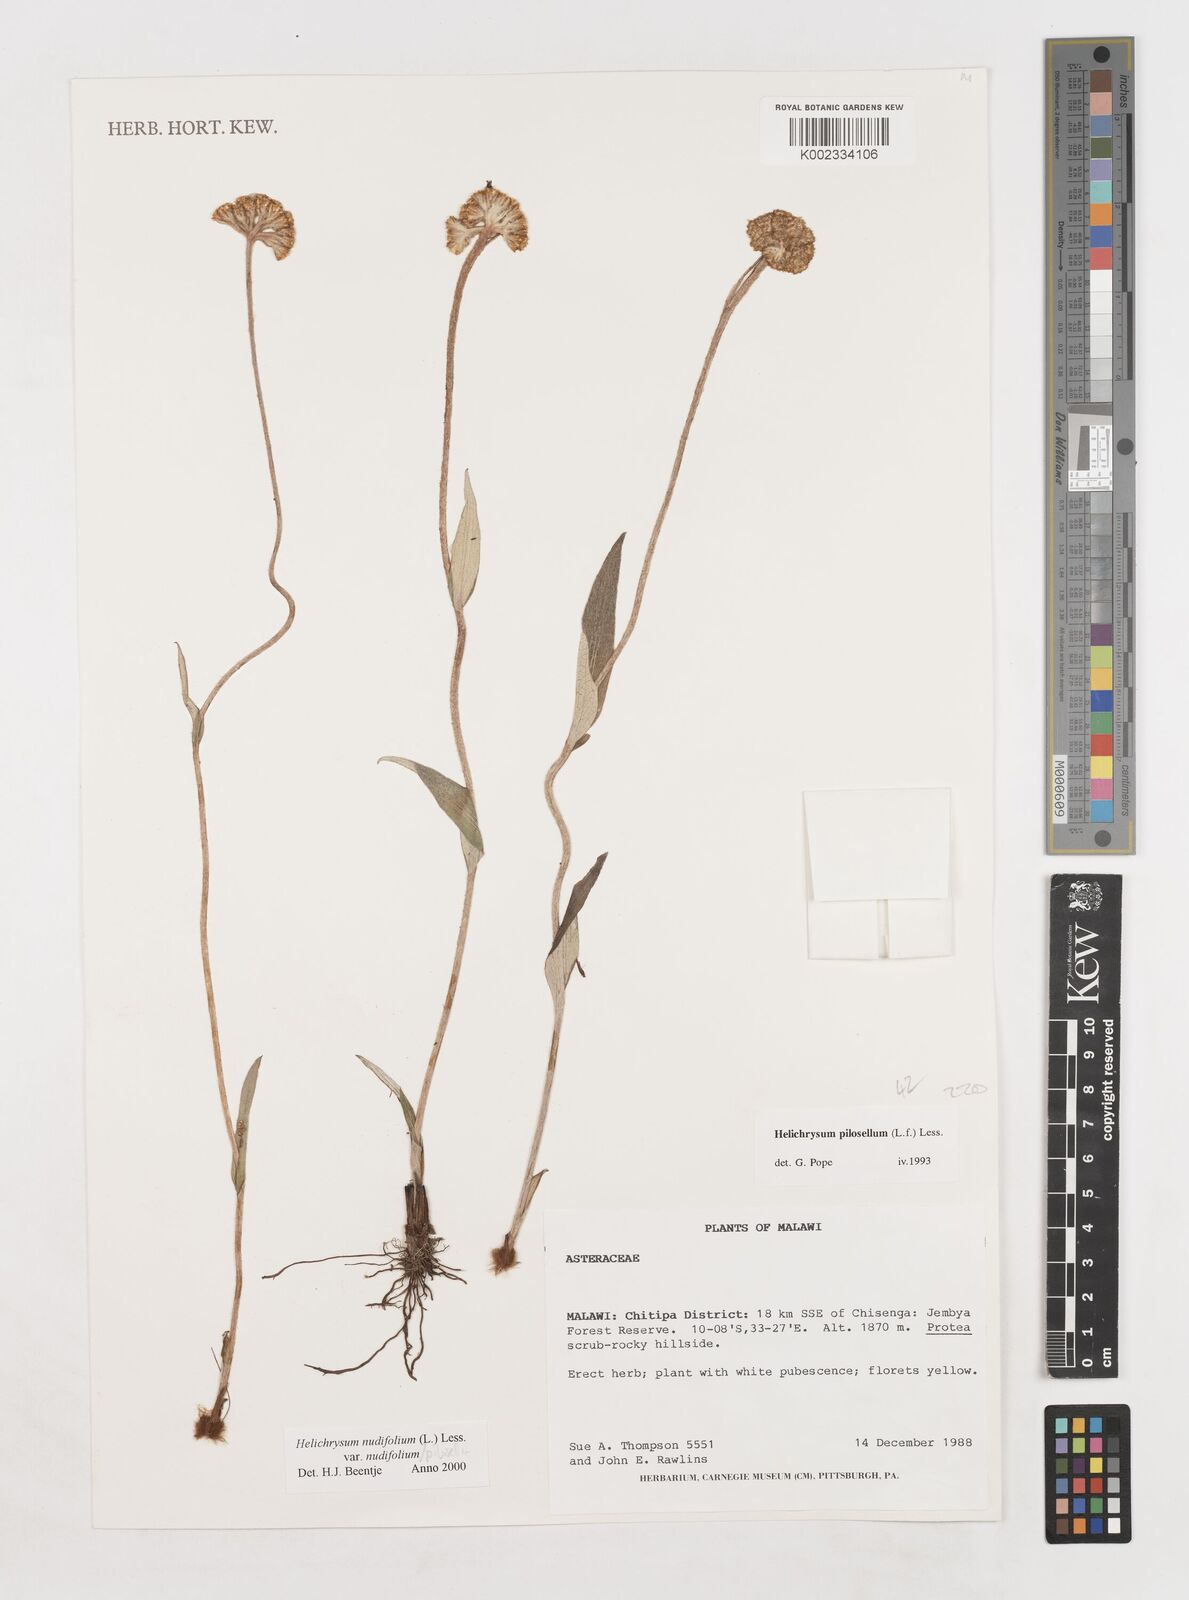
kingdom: Plantae
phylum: Tracheophyta
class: Magnoliopsida
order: Asterales
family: Asteraceae
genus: Helichrysum
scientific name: Helichrysum nudifolium
